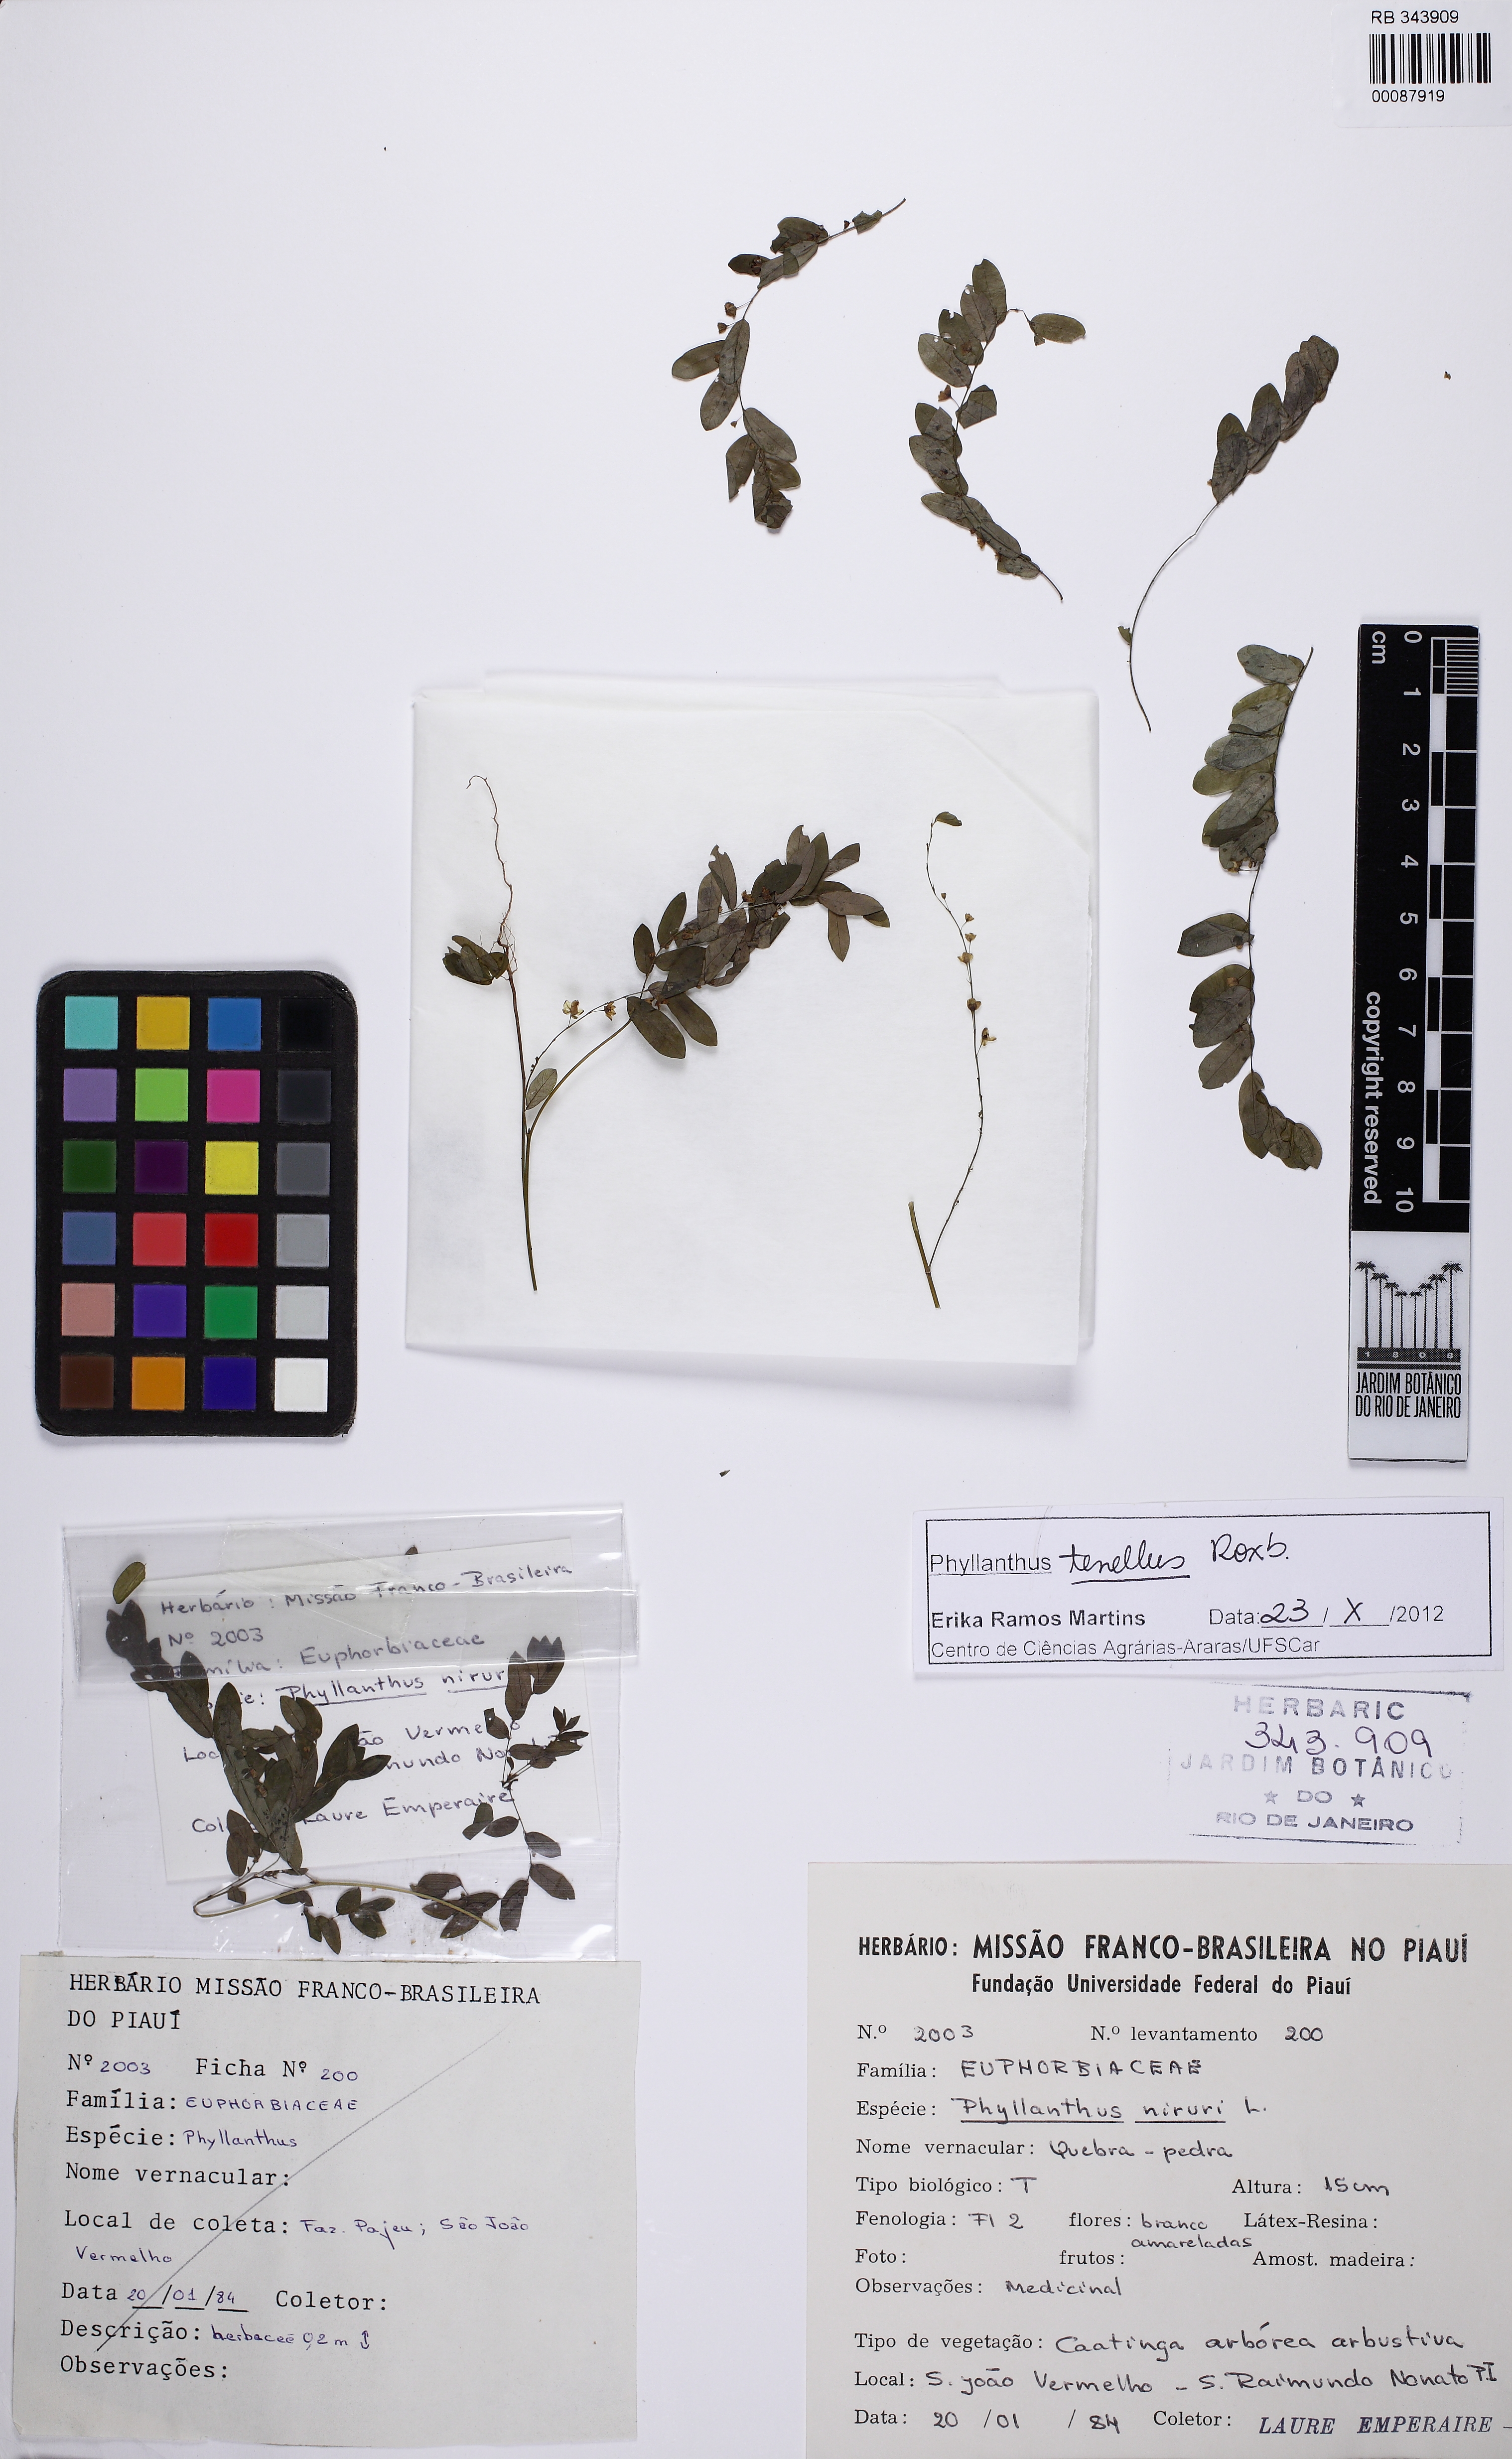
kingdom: Plantae
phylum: Tracheophyta
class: Magnoliopsida
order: Malpighiales
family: Phyllanthaceae
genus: Phyllanthus
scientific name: Phyllanthus tenellus
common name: Mascarene island leaf-flower
